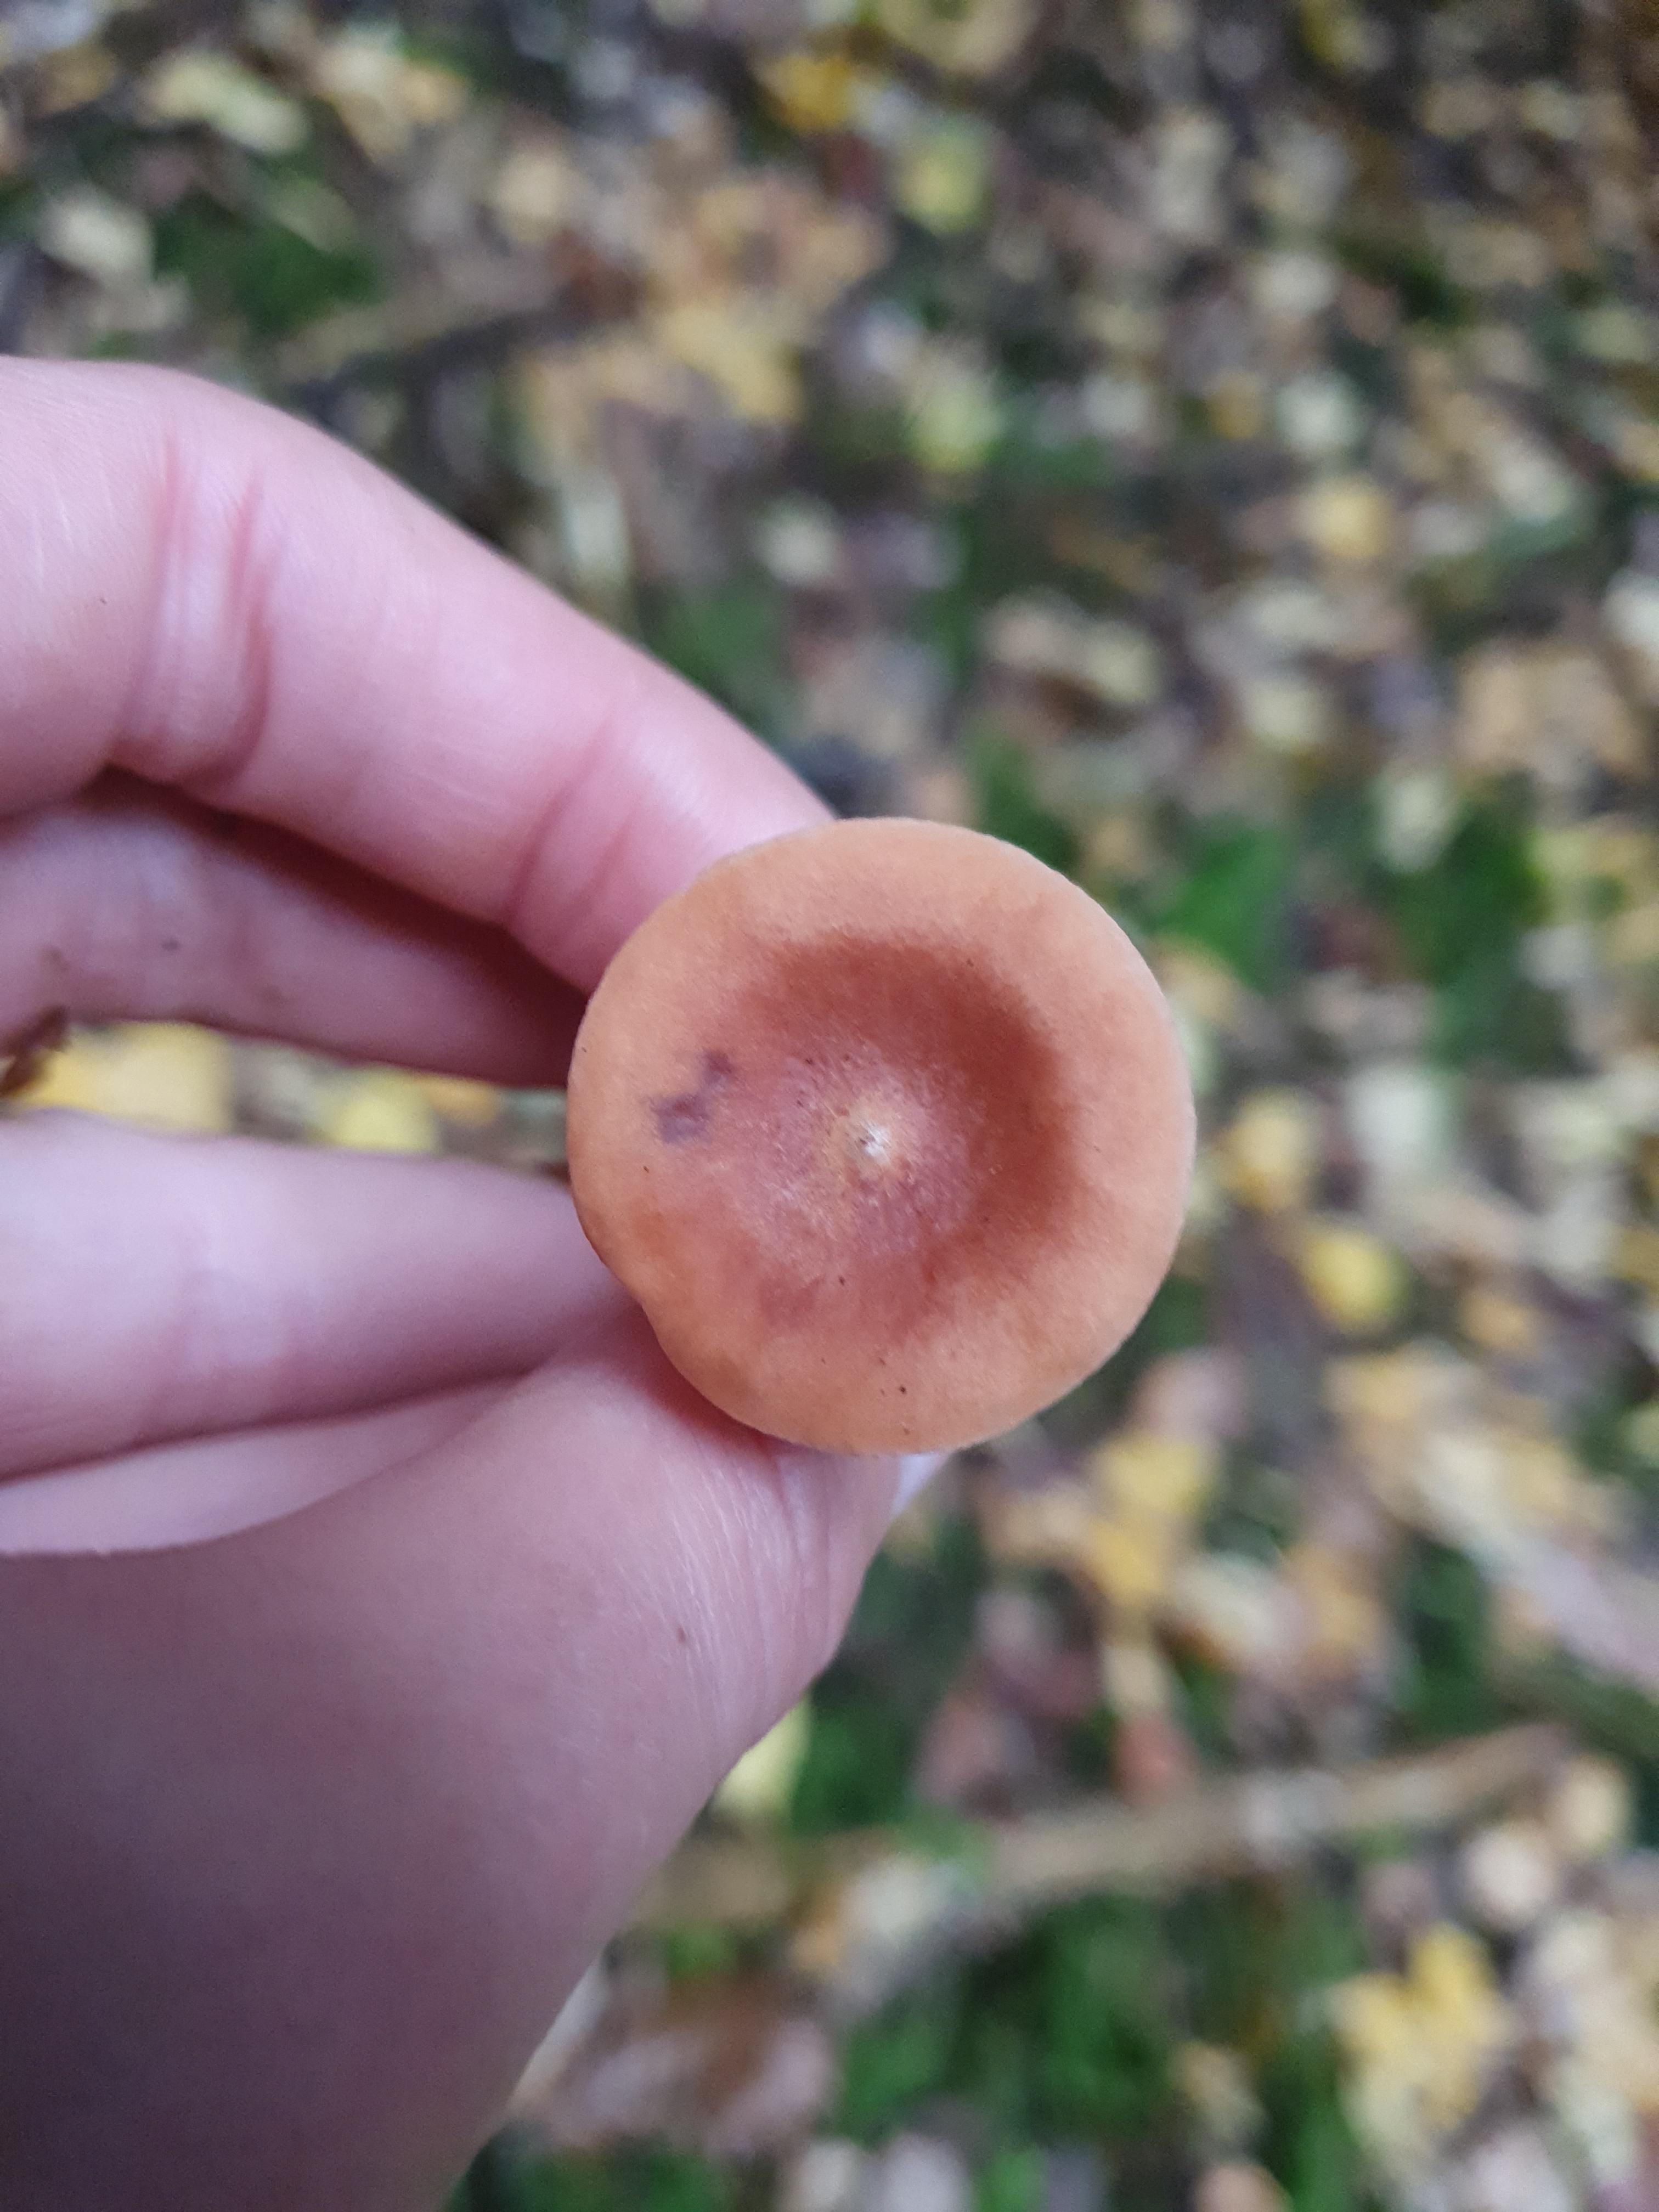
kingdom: Fungi
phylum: Basidiomycota
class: Agaricomycetes
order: Russulales
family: Russulaceae
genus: Lactarius
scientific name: Lactarius
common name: mælkehat
